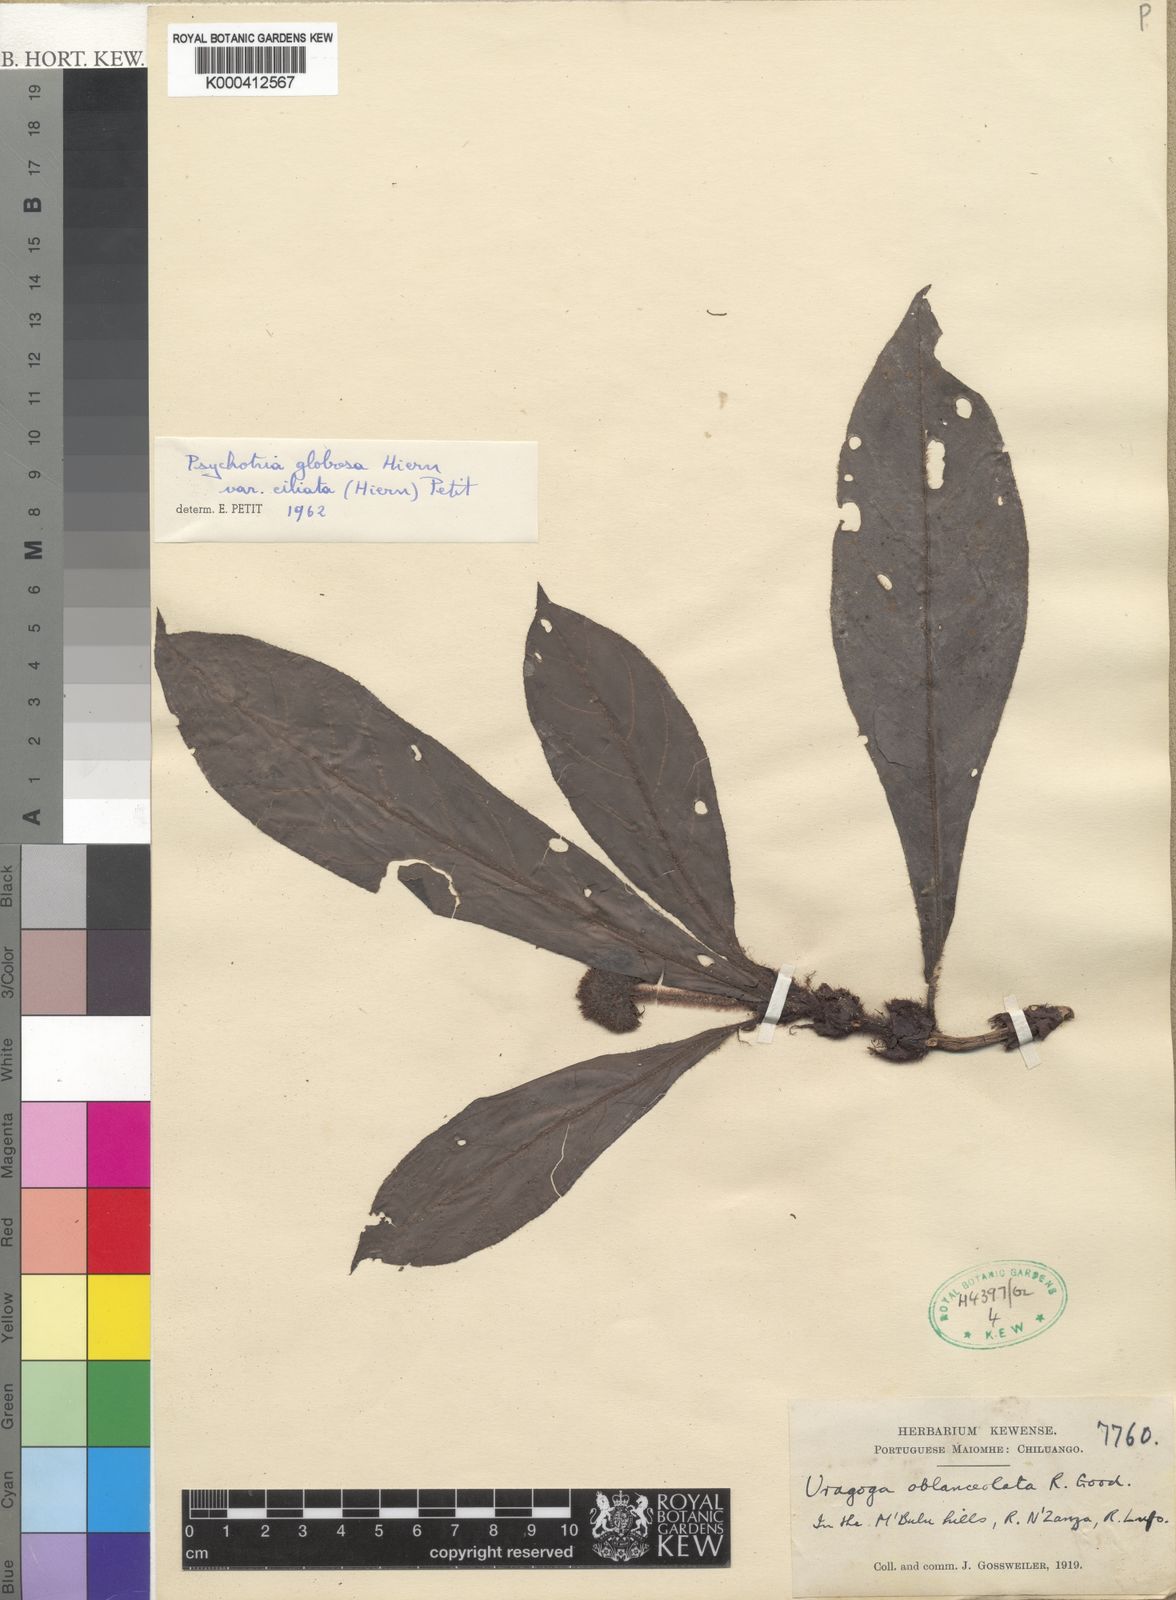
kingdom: Plantae
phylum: Tracheophyta
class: Magnoliopsida
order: Gentianales
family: Rubiaceae
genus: Psychotria
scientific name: Psychotria globosa
